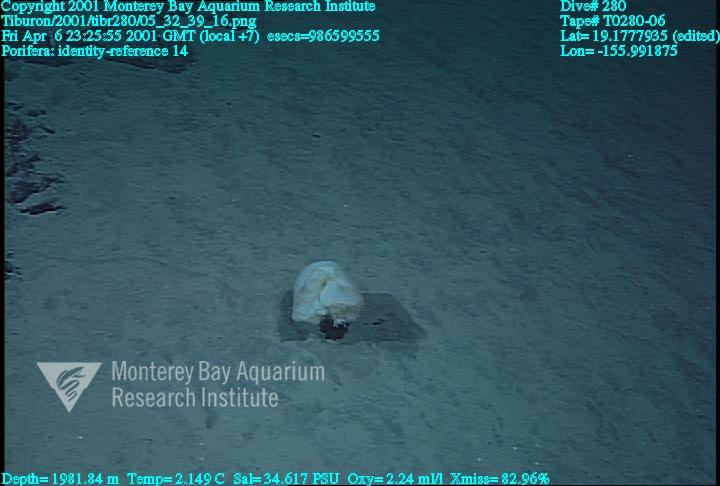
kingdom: Animalia
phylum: Porifera
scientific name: Porifera
